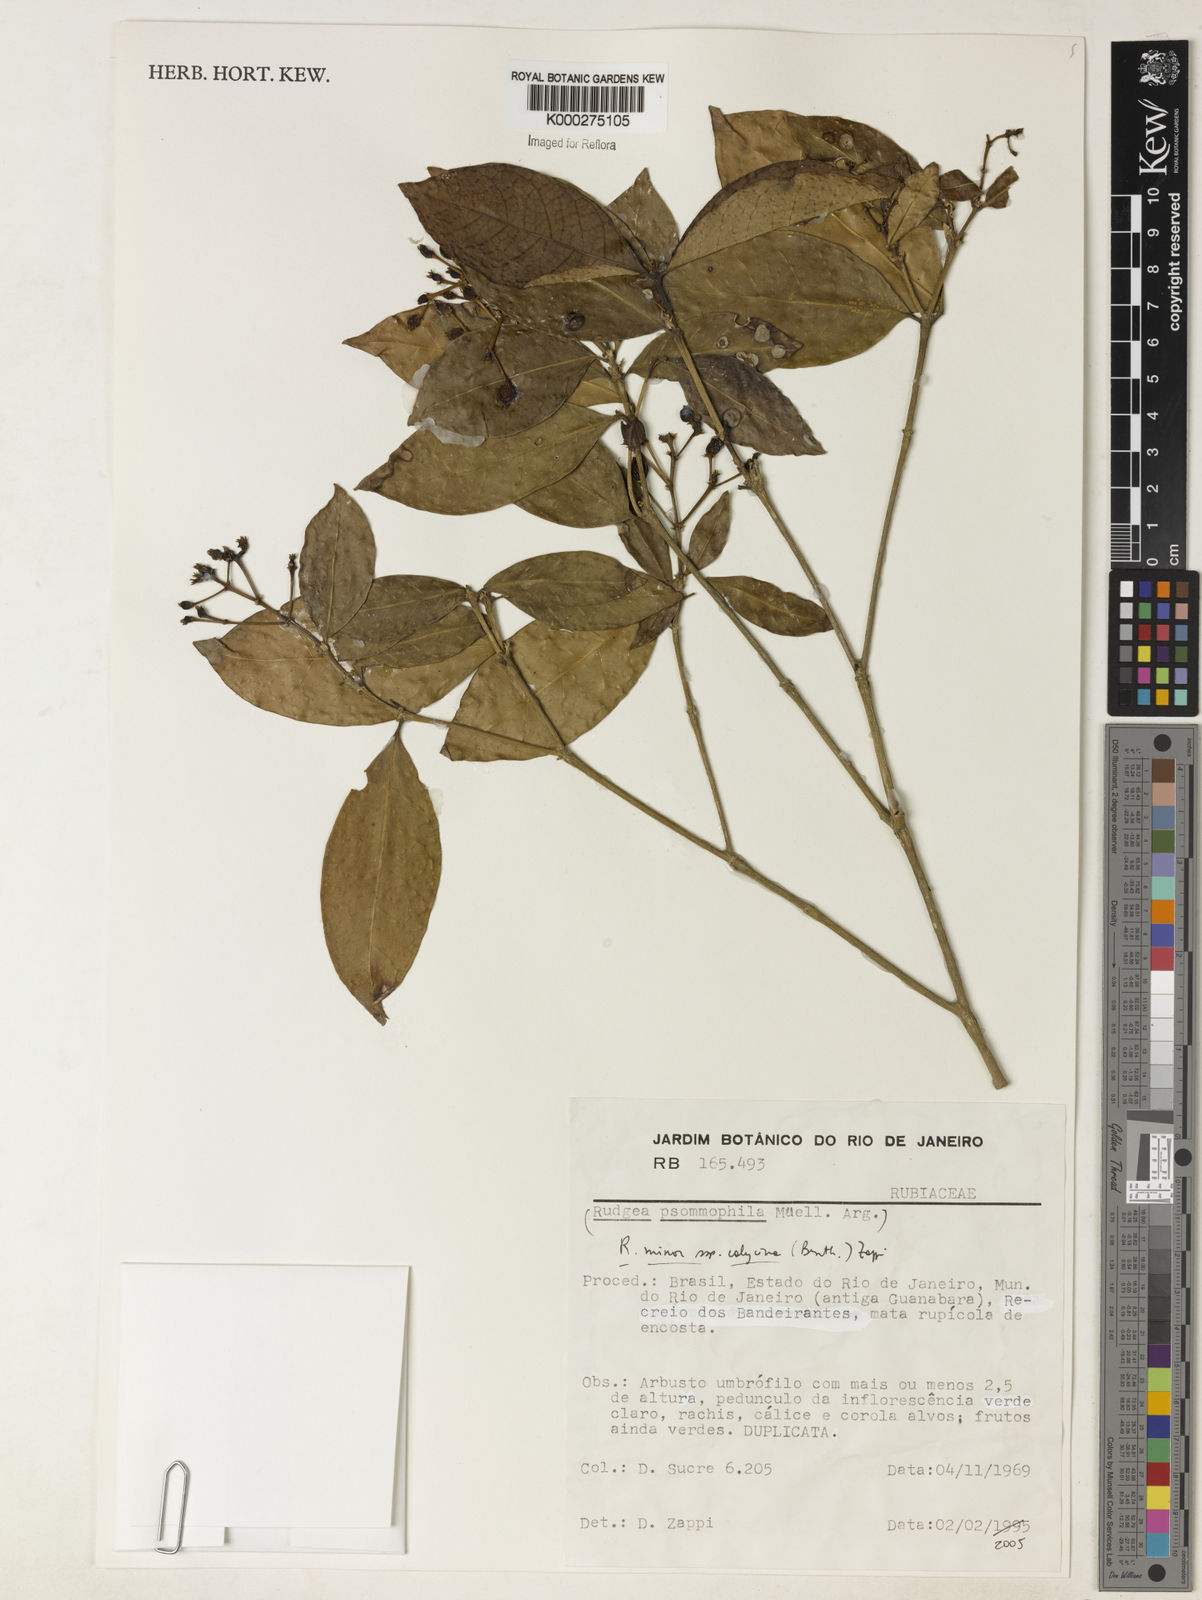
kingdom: Plantae
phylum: Tracheophyta
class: Magnoliopsida
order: Gentianales
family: Rubiaceae
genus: Rudgea
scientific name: Rudgea minor
